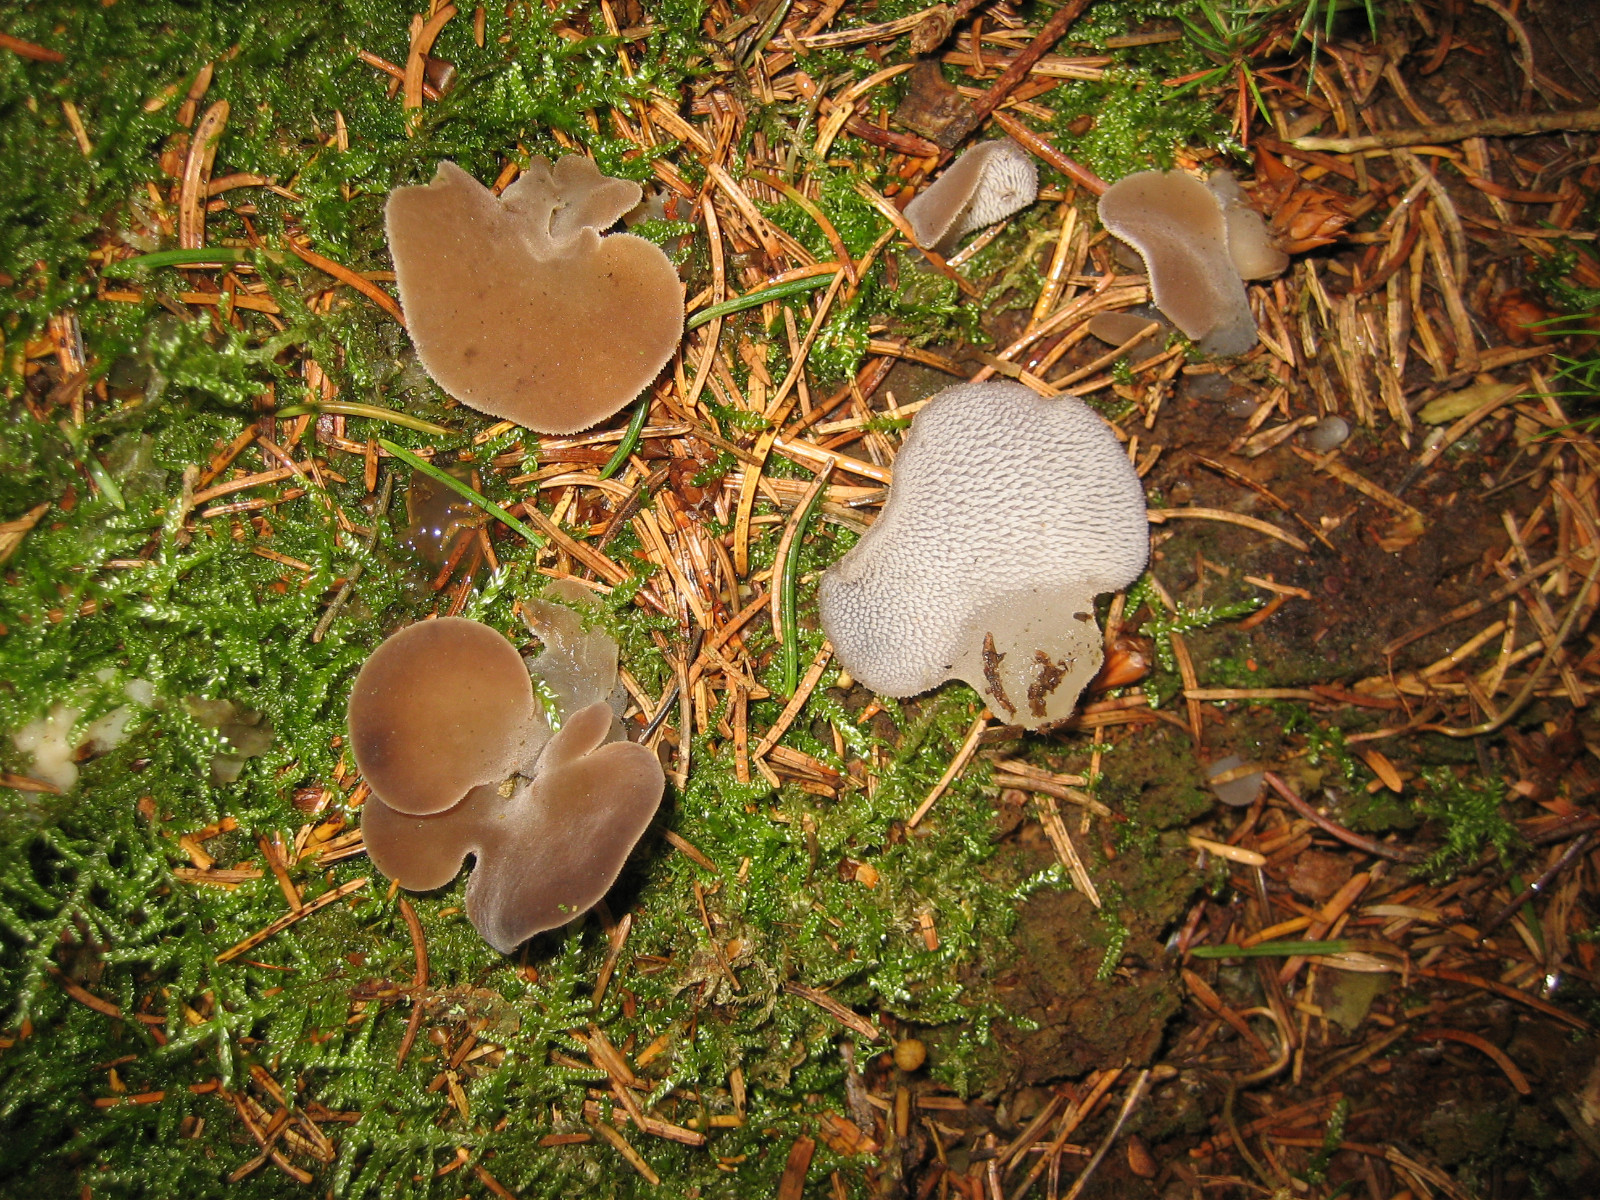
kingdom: Fungi
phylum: Basidiomycota
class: Agaricomycetes
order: Auriculariales
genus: Pseudohydnum
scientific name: Pseudohydnum gelatinosum
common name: bævretand
